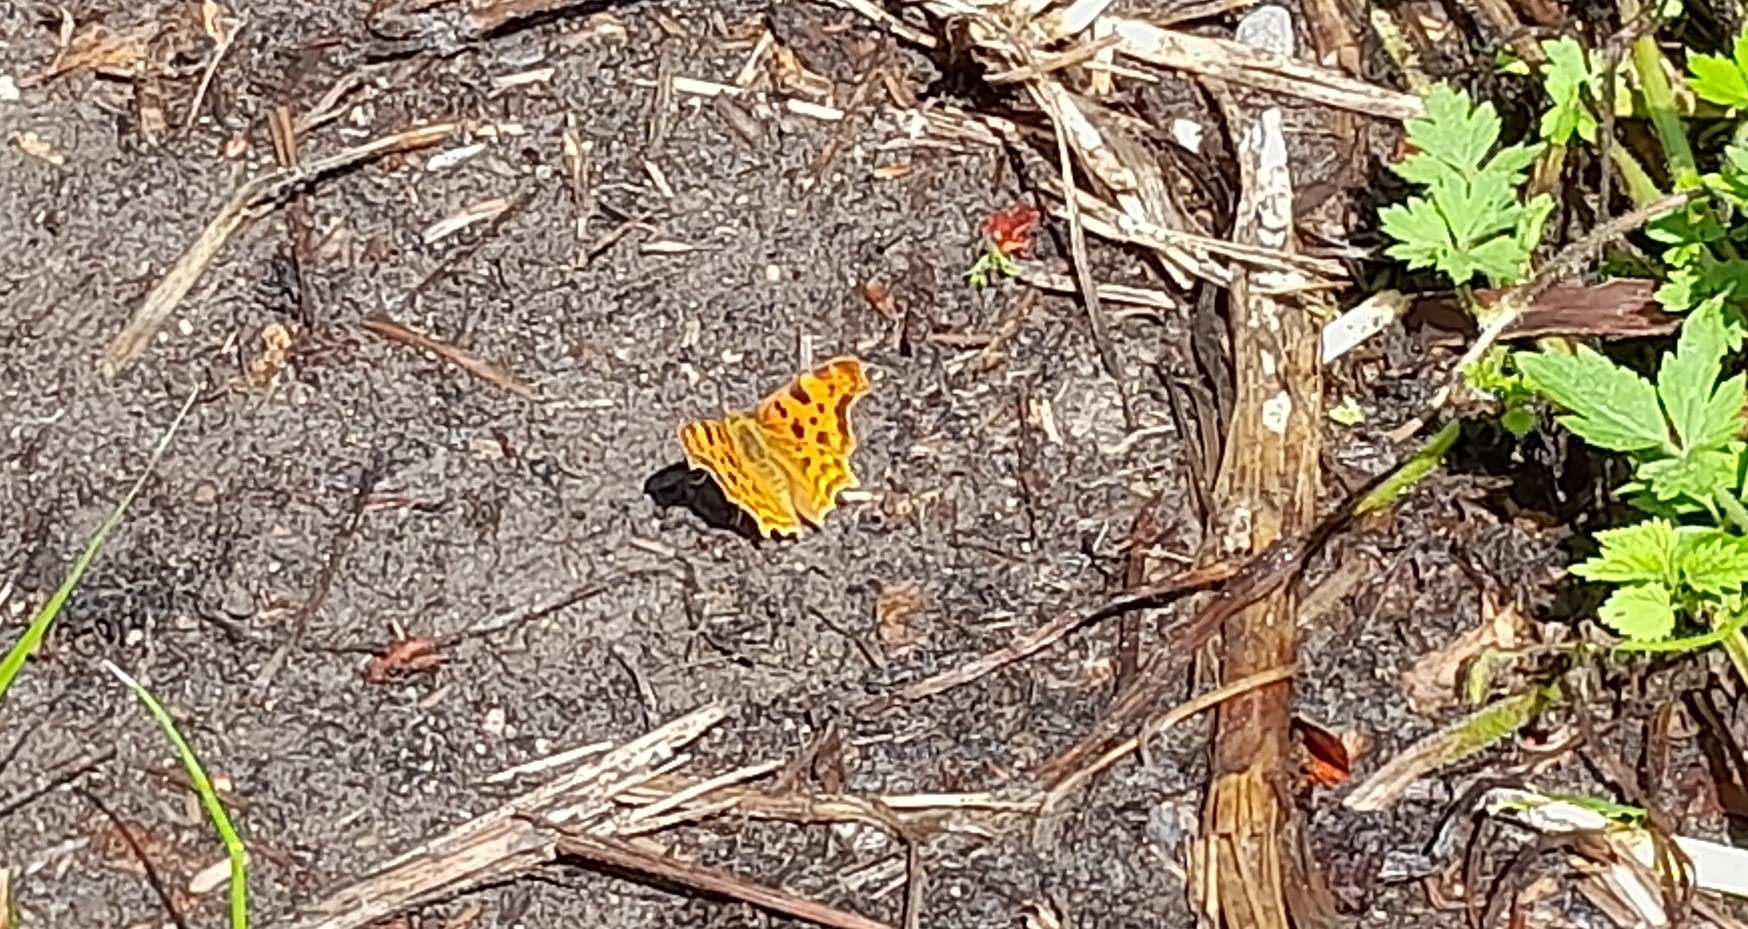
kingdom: Animalia
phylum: Arthropoda
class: Insecta
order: Lepidoptera
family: Nymphalidae
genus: Polygonia
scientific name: Polygonia c-album
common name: Det hvide C
